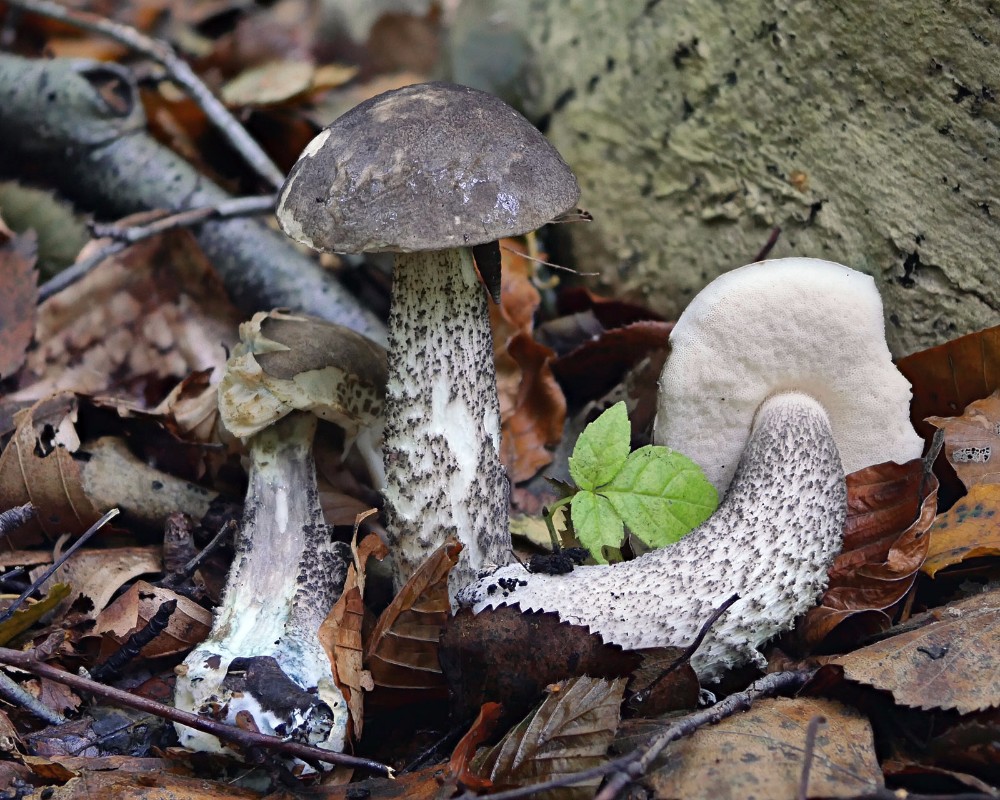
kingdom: Fungi
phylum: Basidiomycota
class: Agaricomycetes
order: Boletales
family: Boletaceae
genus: Leccinum
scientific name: Leccinum variicolor
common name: flammet skælrørhat
